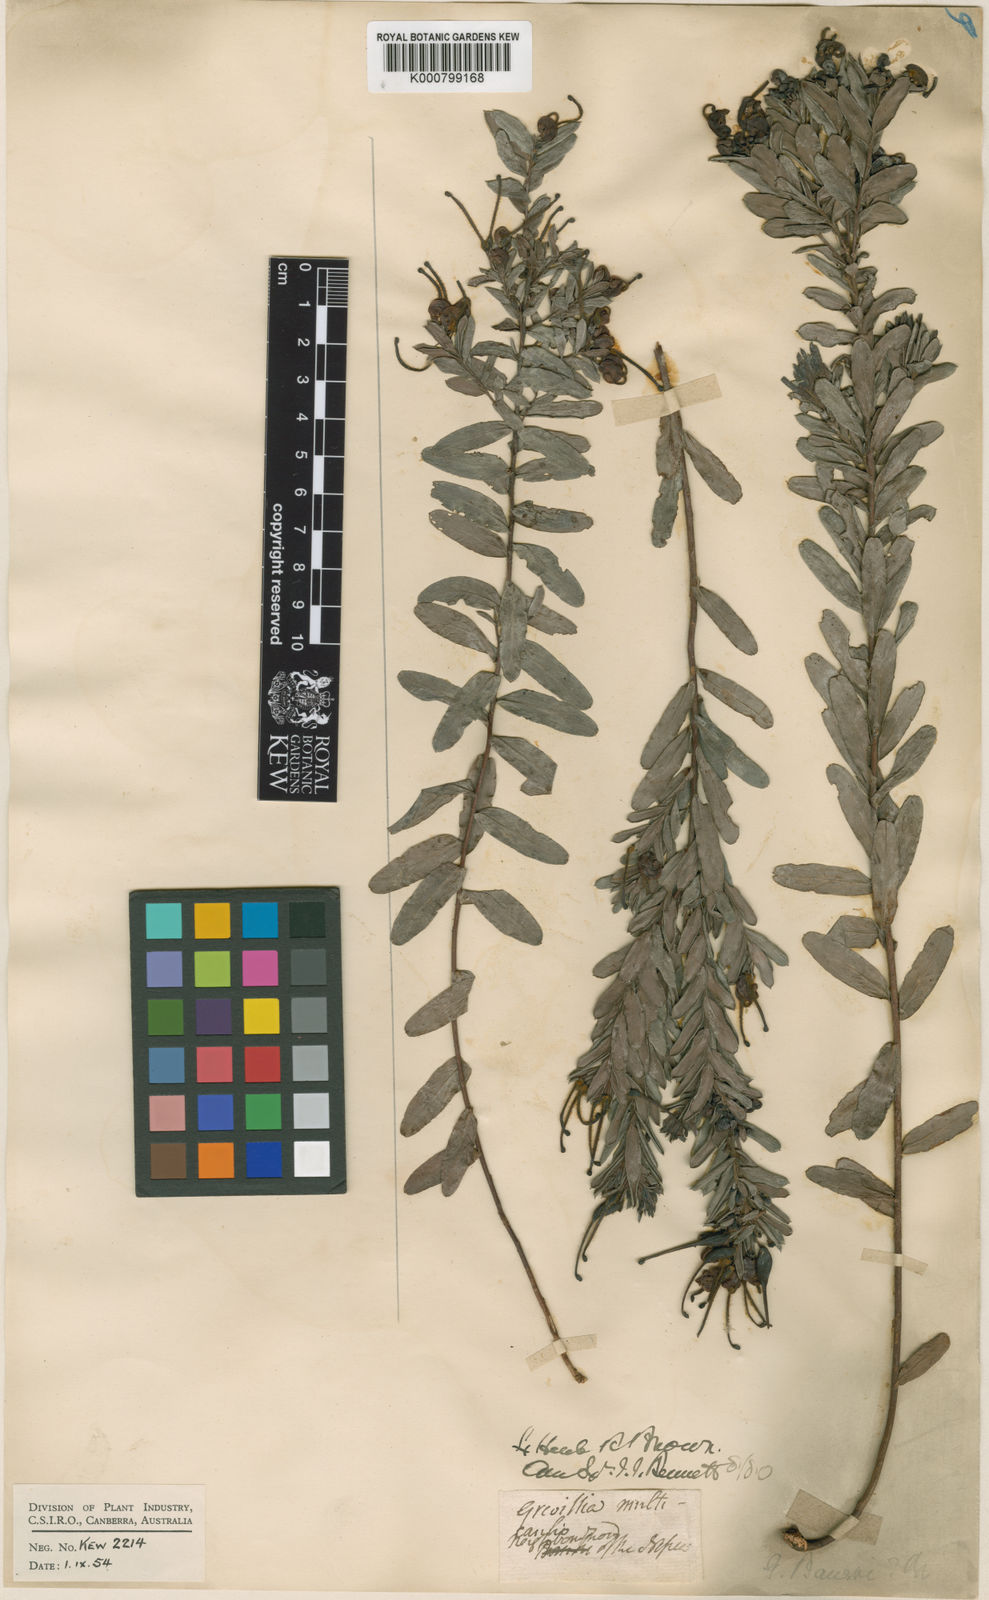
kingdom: Plantae
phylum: Tracheophyta
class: Magnoliopsida
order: Proteales
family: Proteaceae
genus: Grevillea
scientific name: Grevillea baueri
